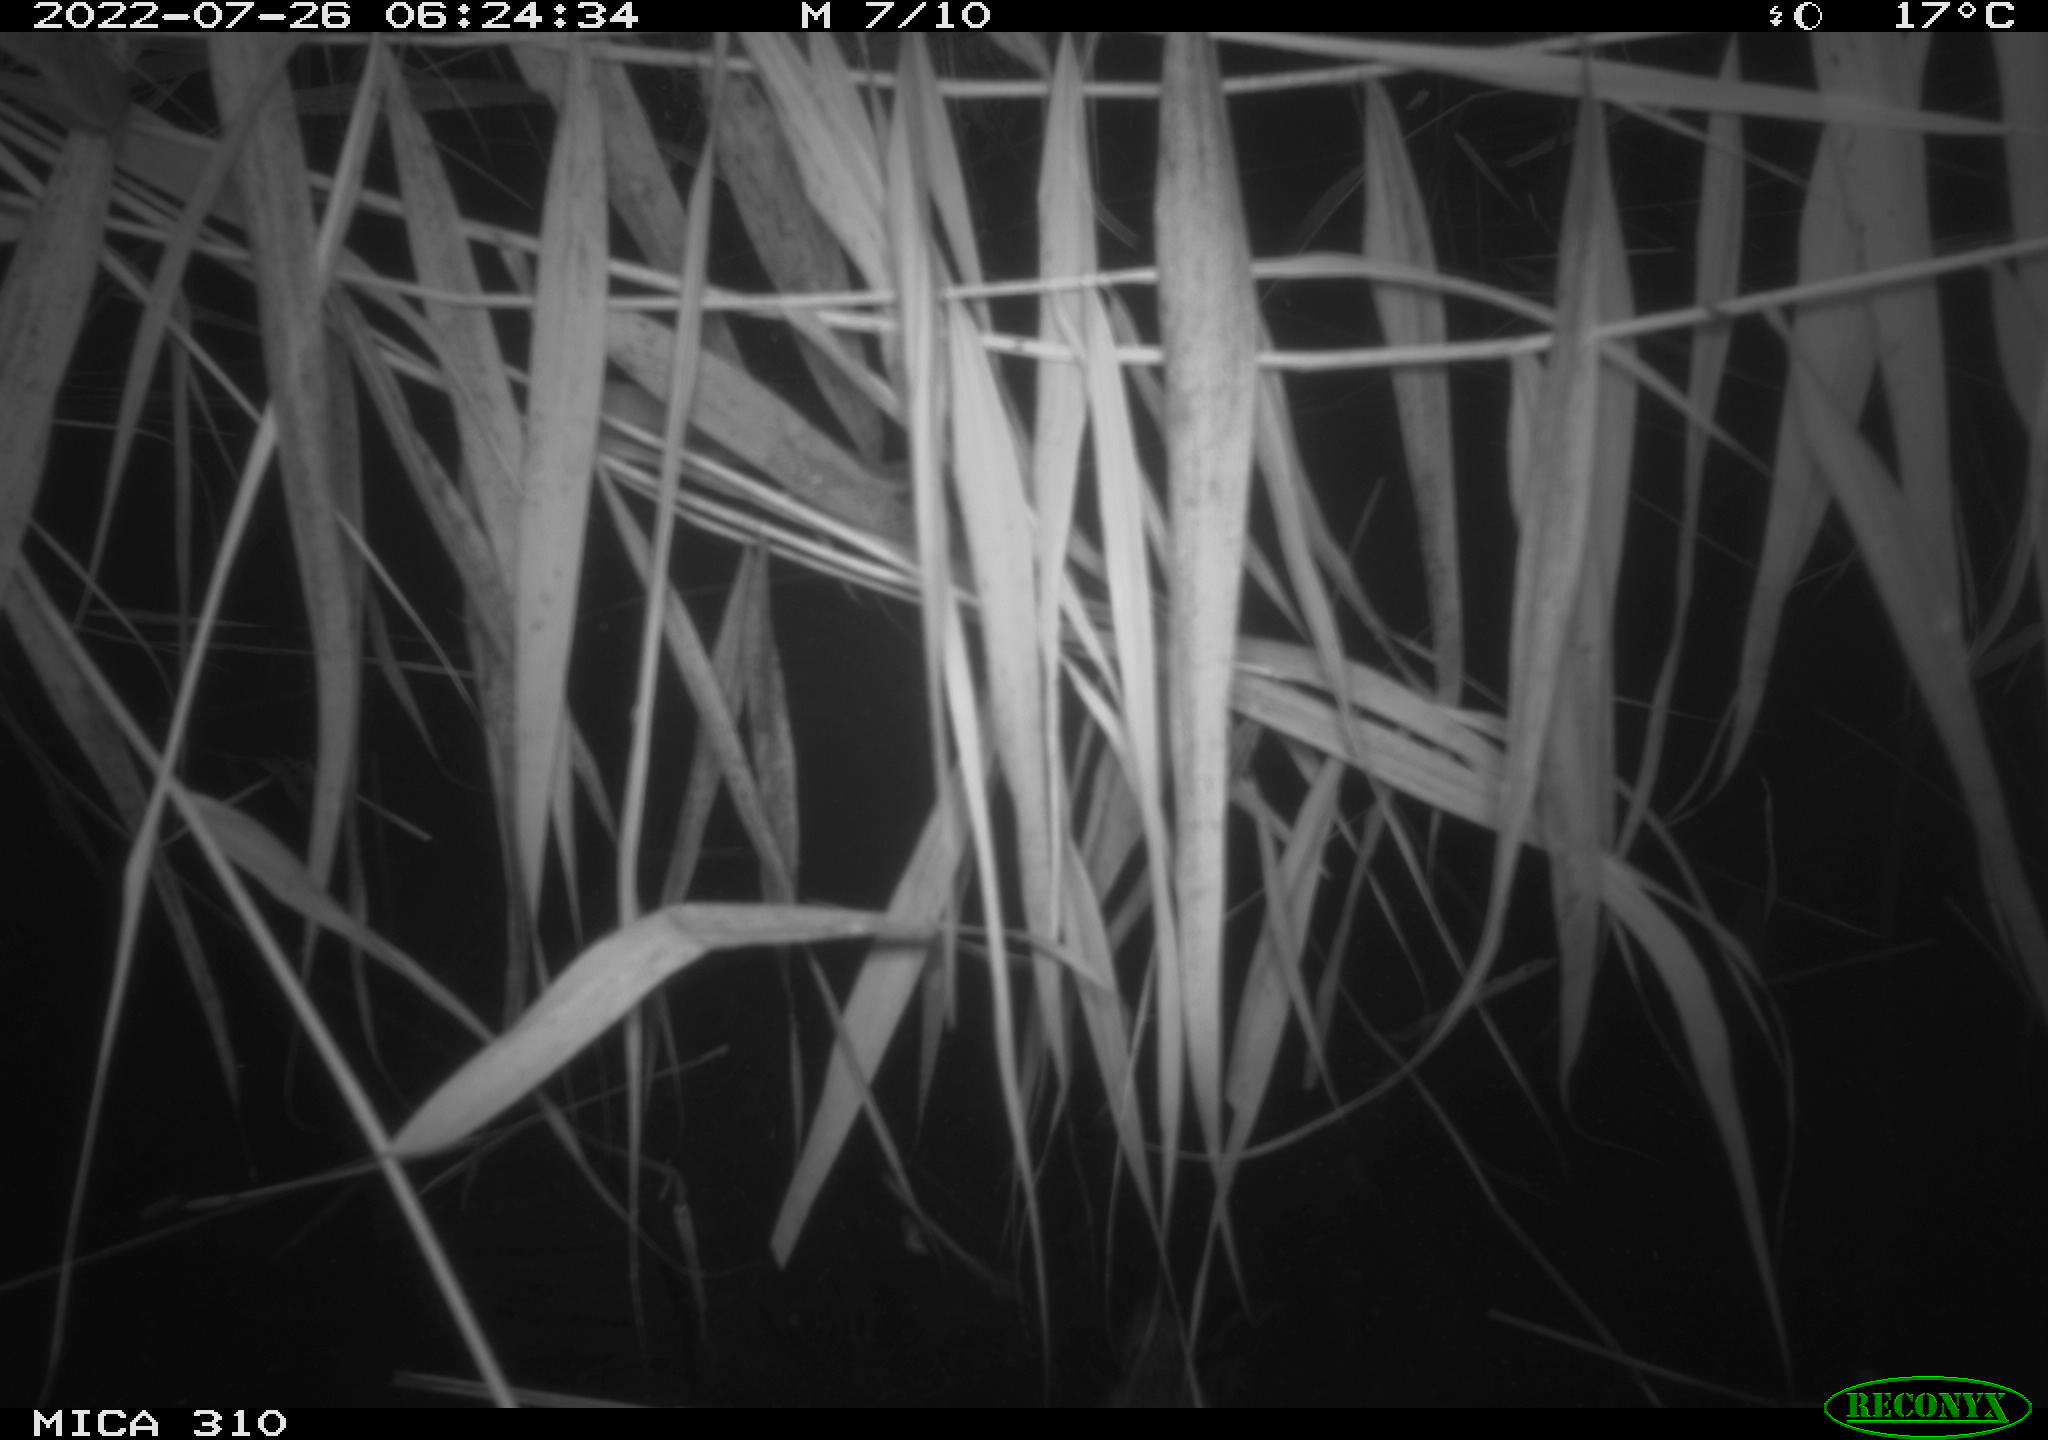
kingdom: Animalia
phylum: Chordata
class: Aves
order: Anseriformes
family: Anatidae
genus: Anas
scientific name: Anas platyrhynchos
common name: Mallard
